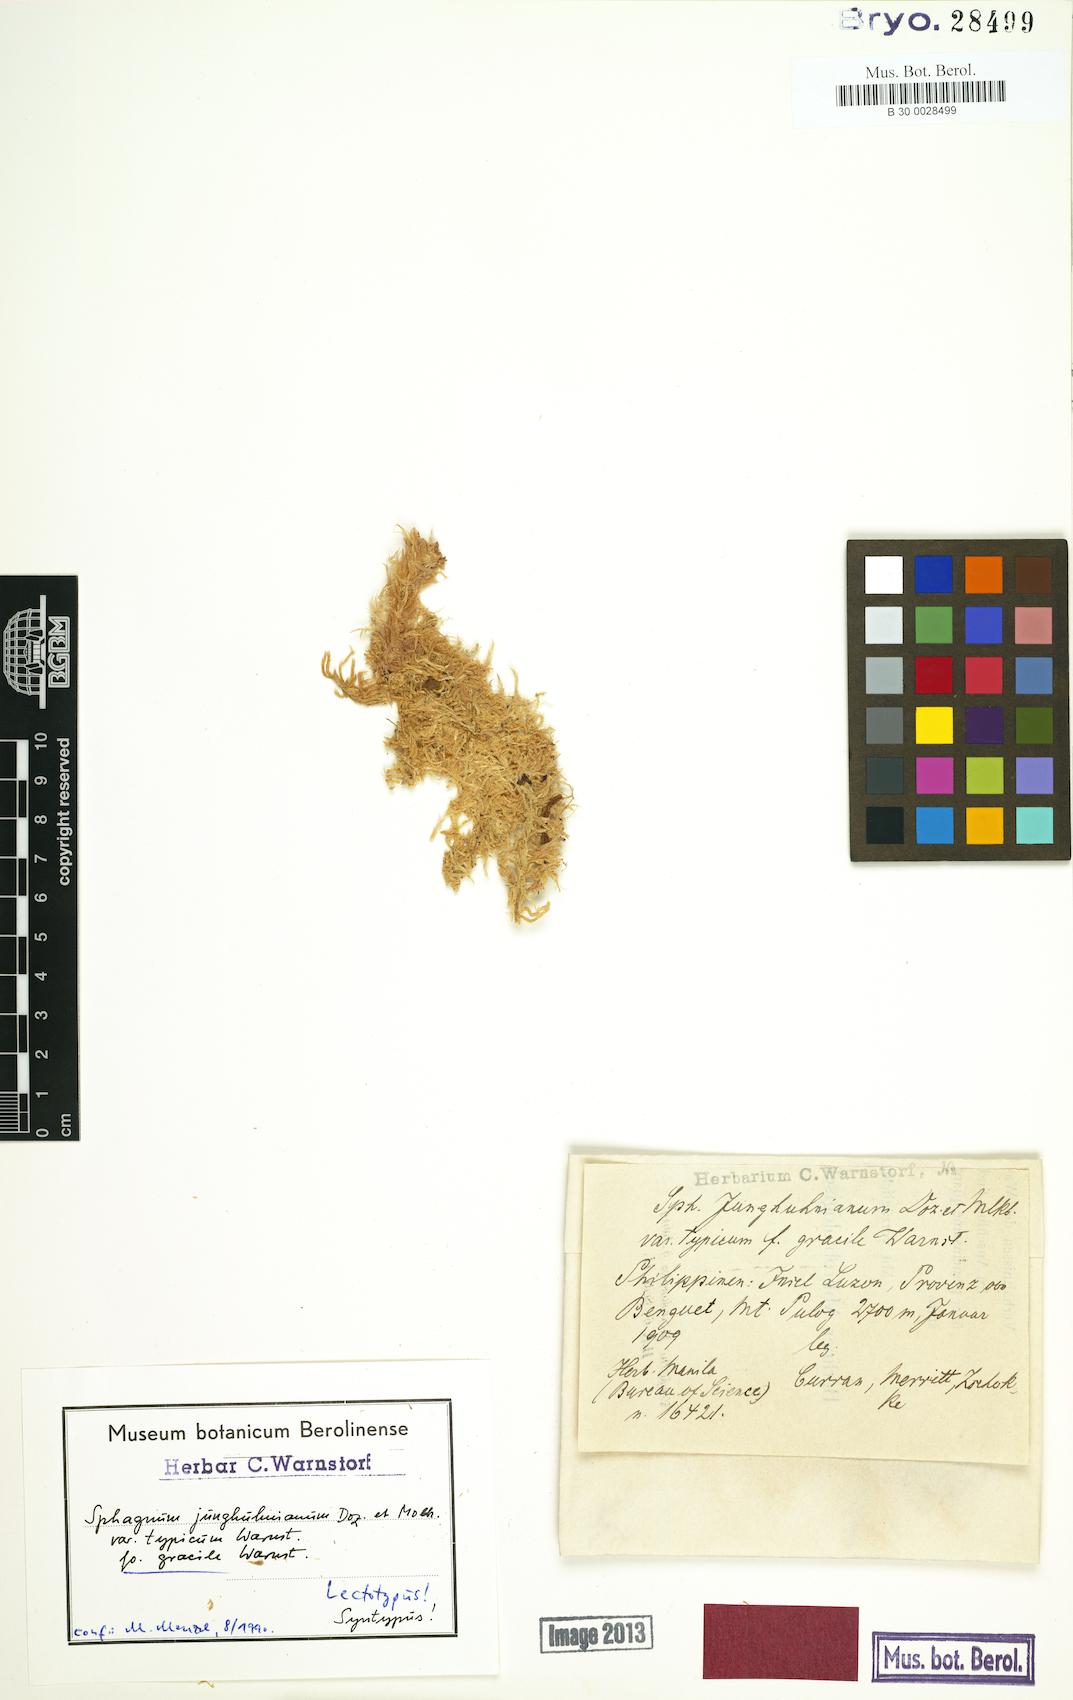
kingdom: Plantae
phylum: Bryophyta
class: Sphagnopsida
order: Sphagnales
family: Sphagnaceae
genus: Sphagnum
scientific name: Sphagnum junghuhnianum
